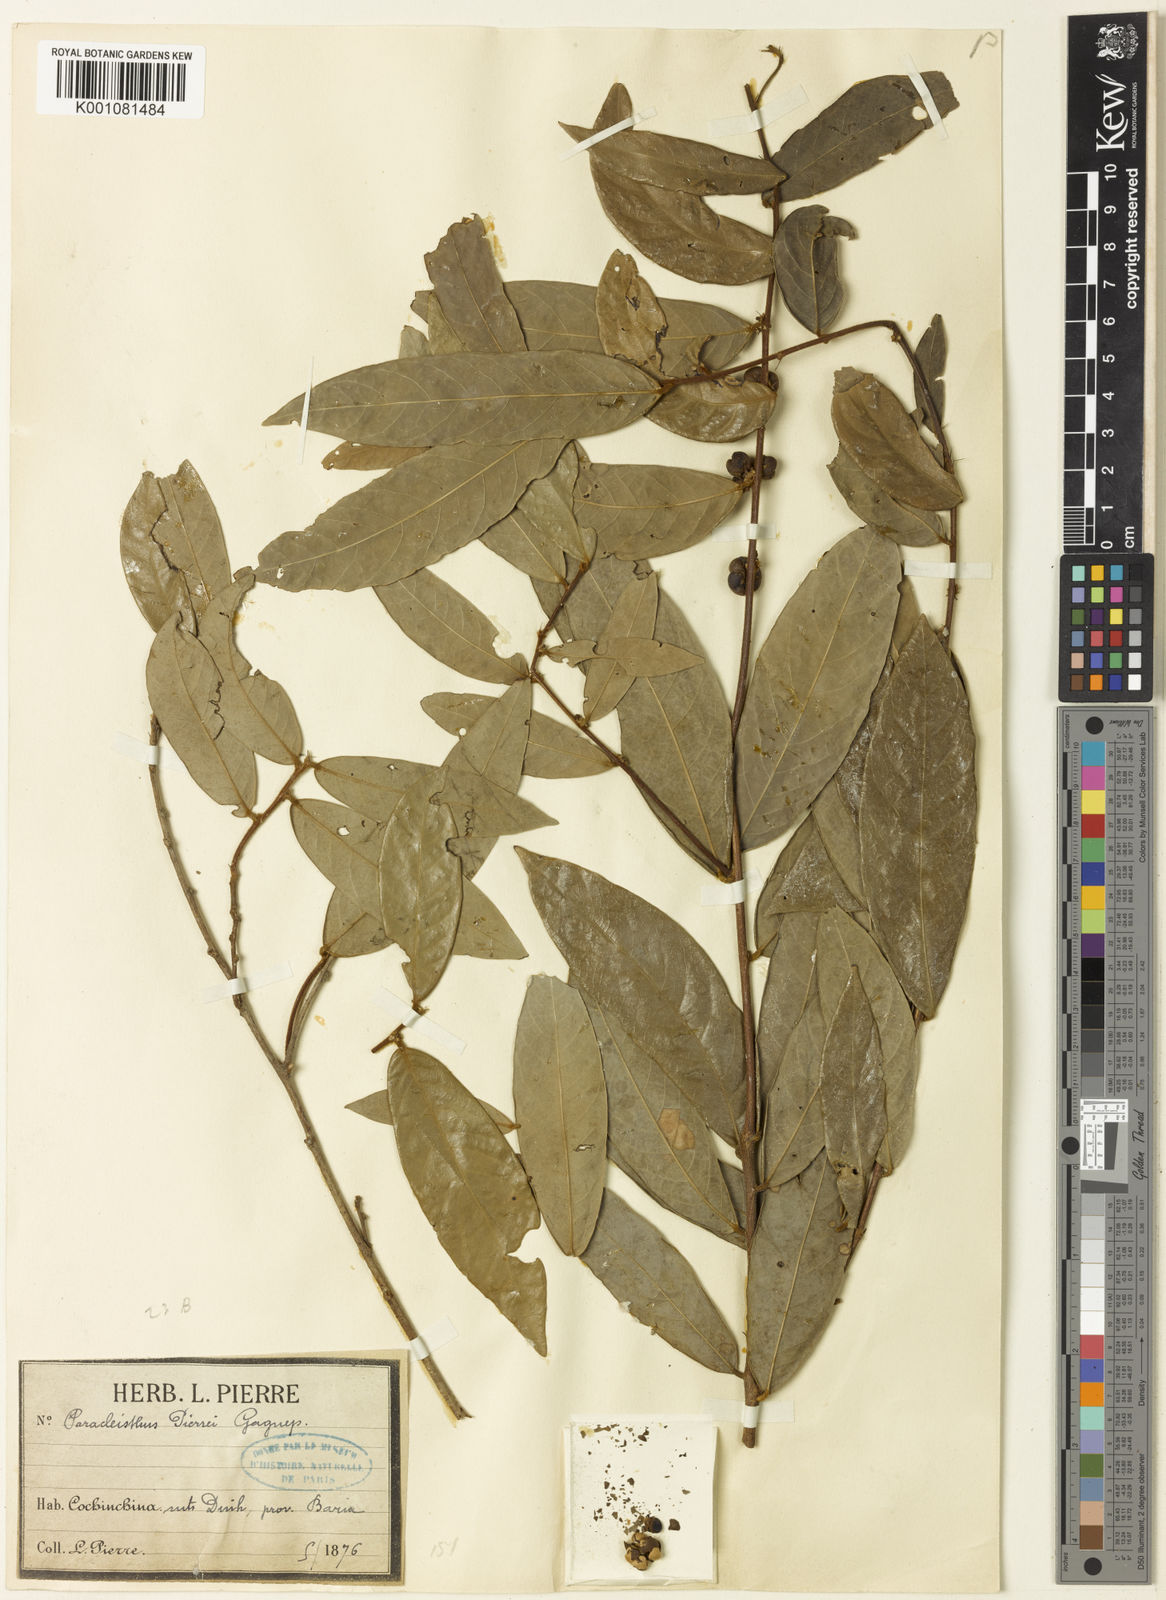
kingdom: Plantae
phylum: Tracheophyta
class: Magnoliopsida
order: Malpighiales
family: Phyllanthaceae
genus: Cleistanthus
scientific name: Cleistanthus pierrei
